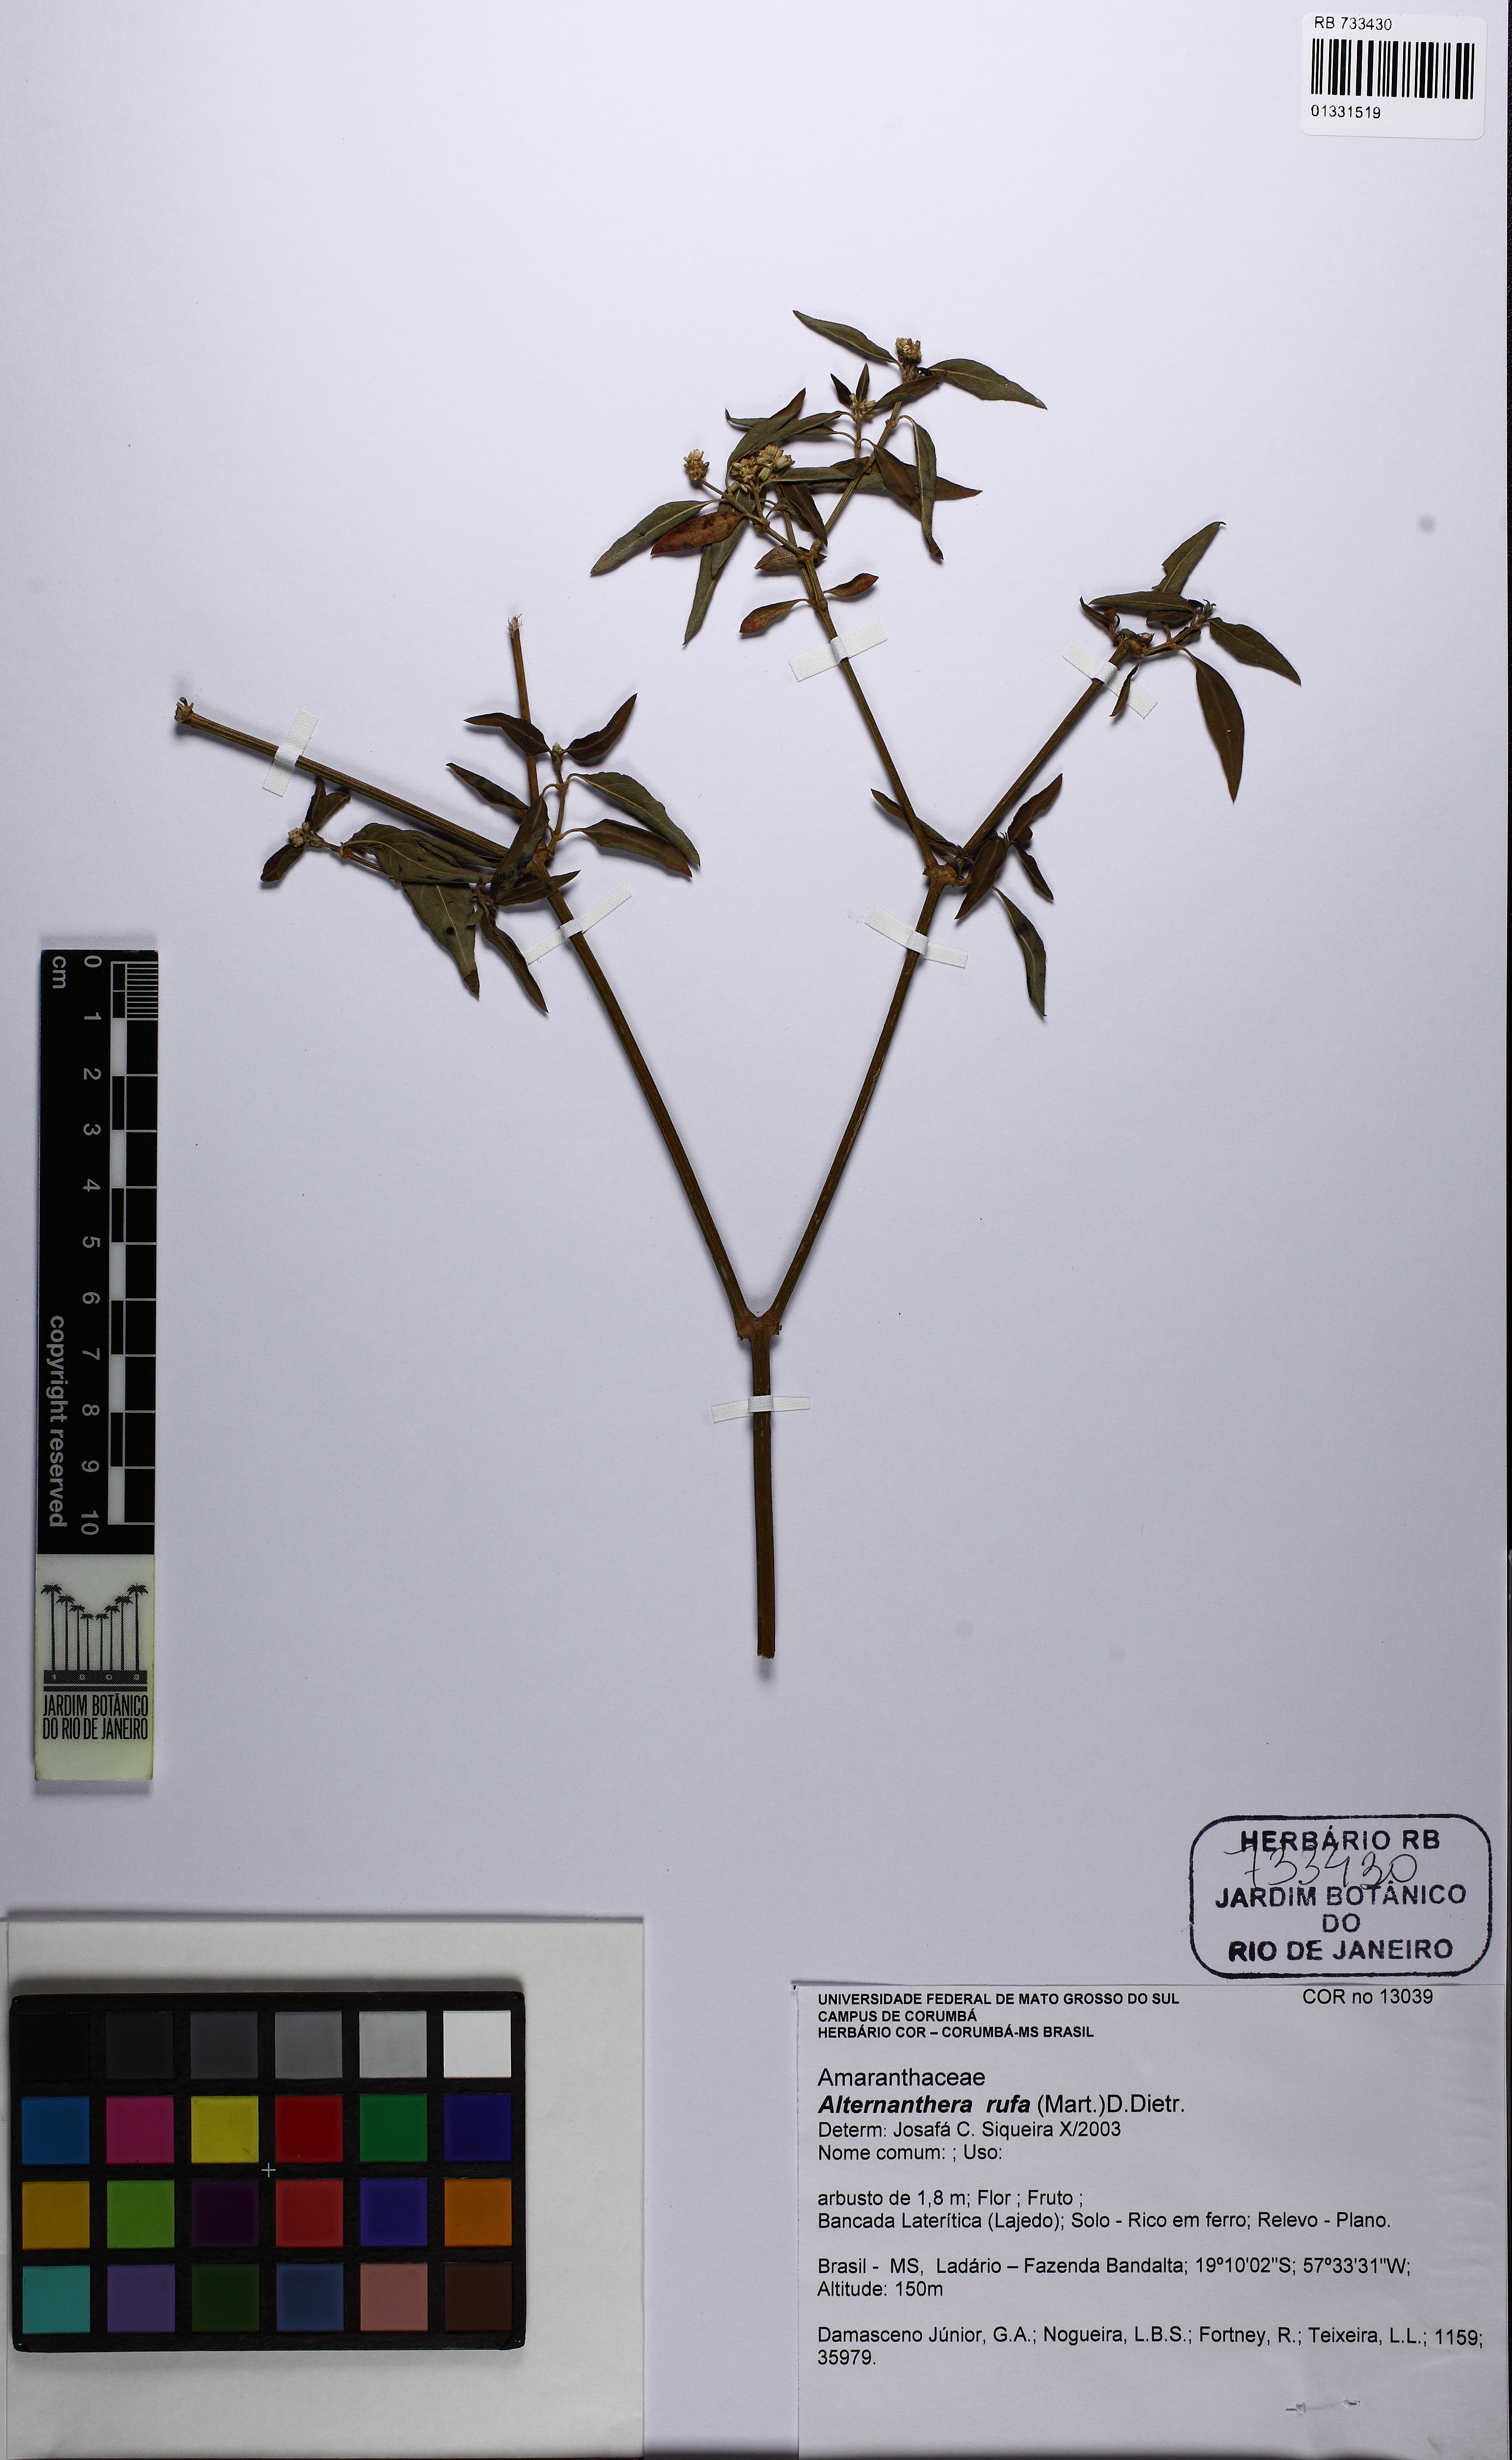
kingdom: Plantae
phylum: Tracheophyta
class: Magnoliopsida
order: Caryophyllales
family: Amaranthaceae
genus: Alternanthera
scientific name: Alternanthera rufa
